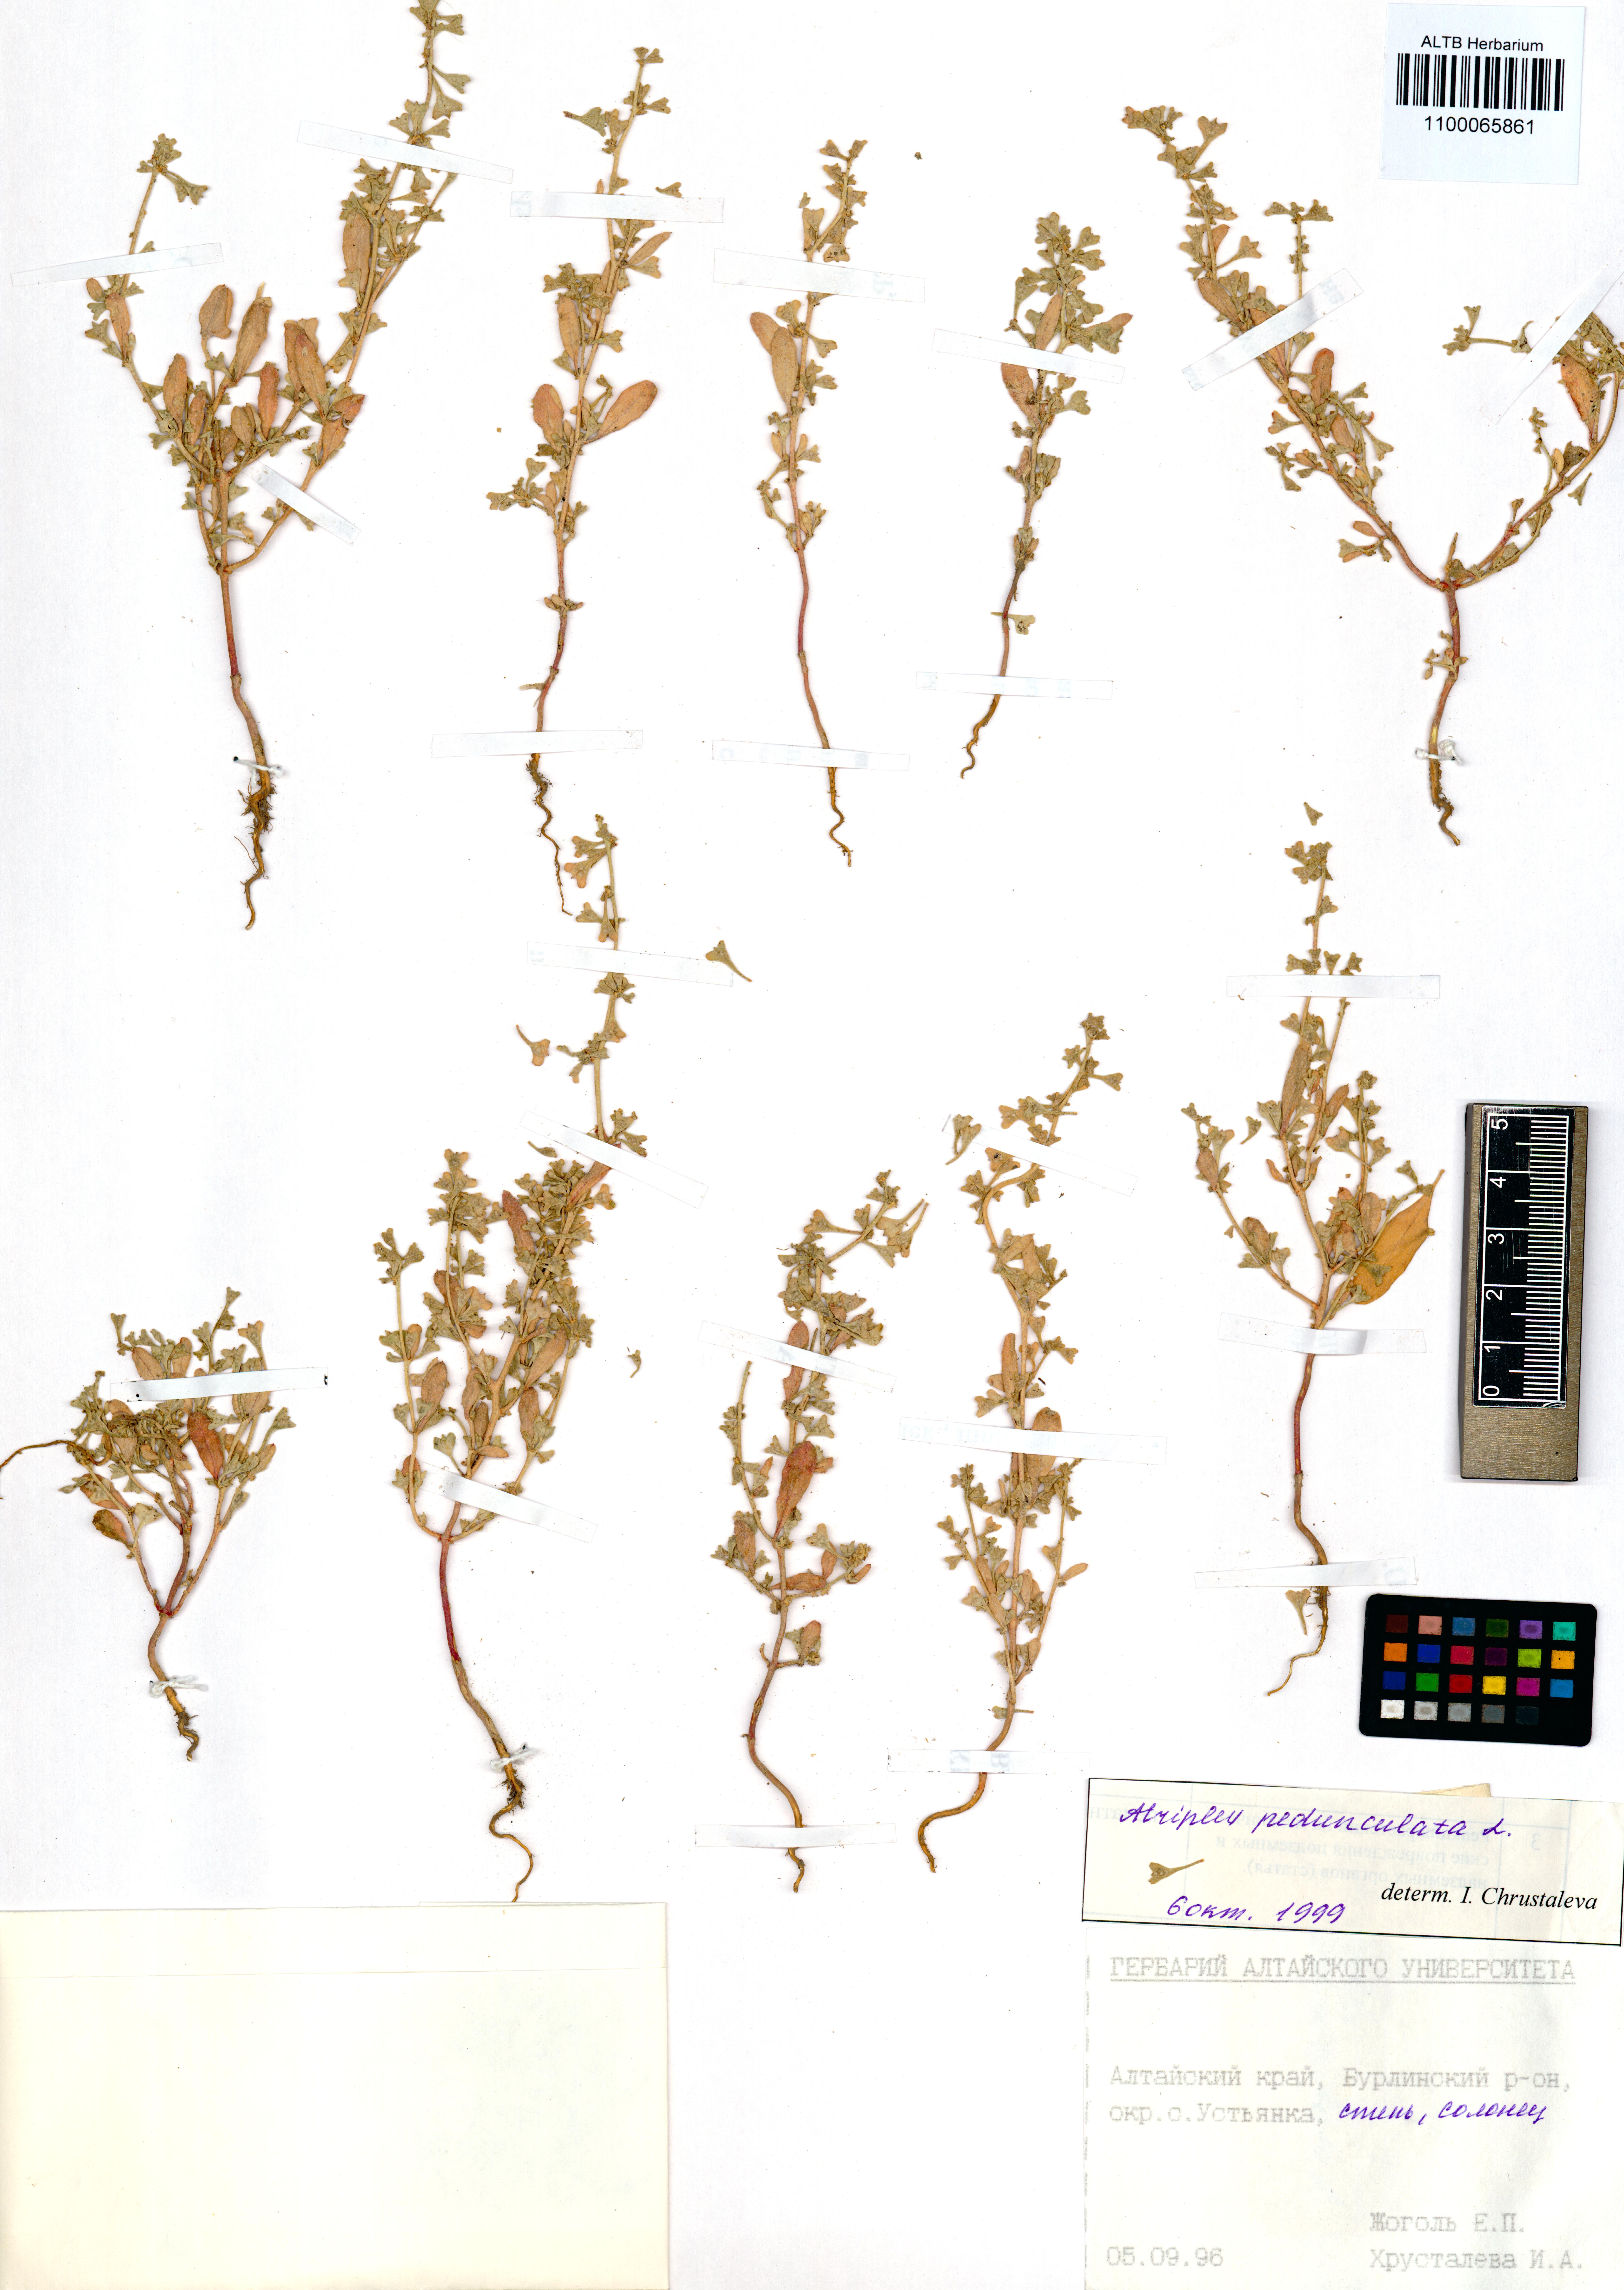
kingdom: Plantae
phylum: Tracheophyta
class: Magnoliopsida
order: Caryophyllales
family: Amaranthaceae
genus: Halimione
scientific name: Halimione pedunculata
